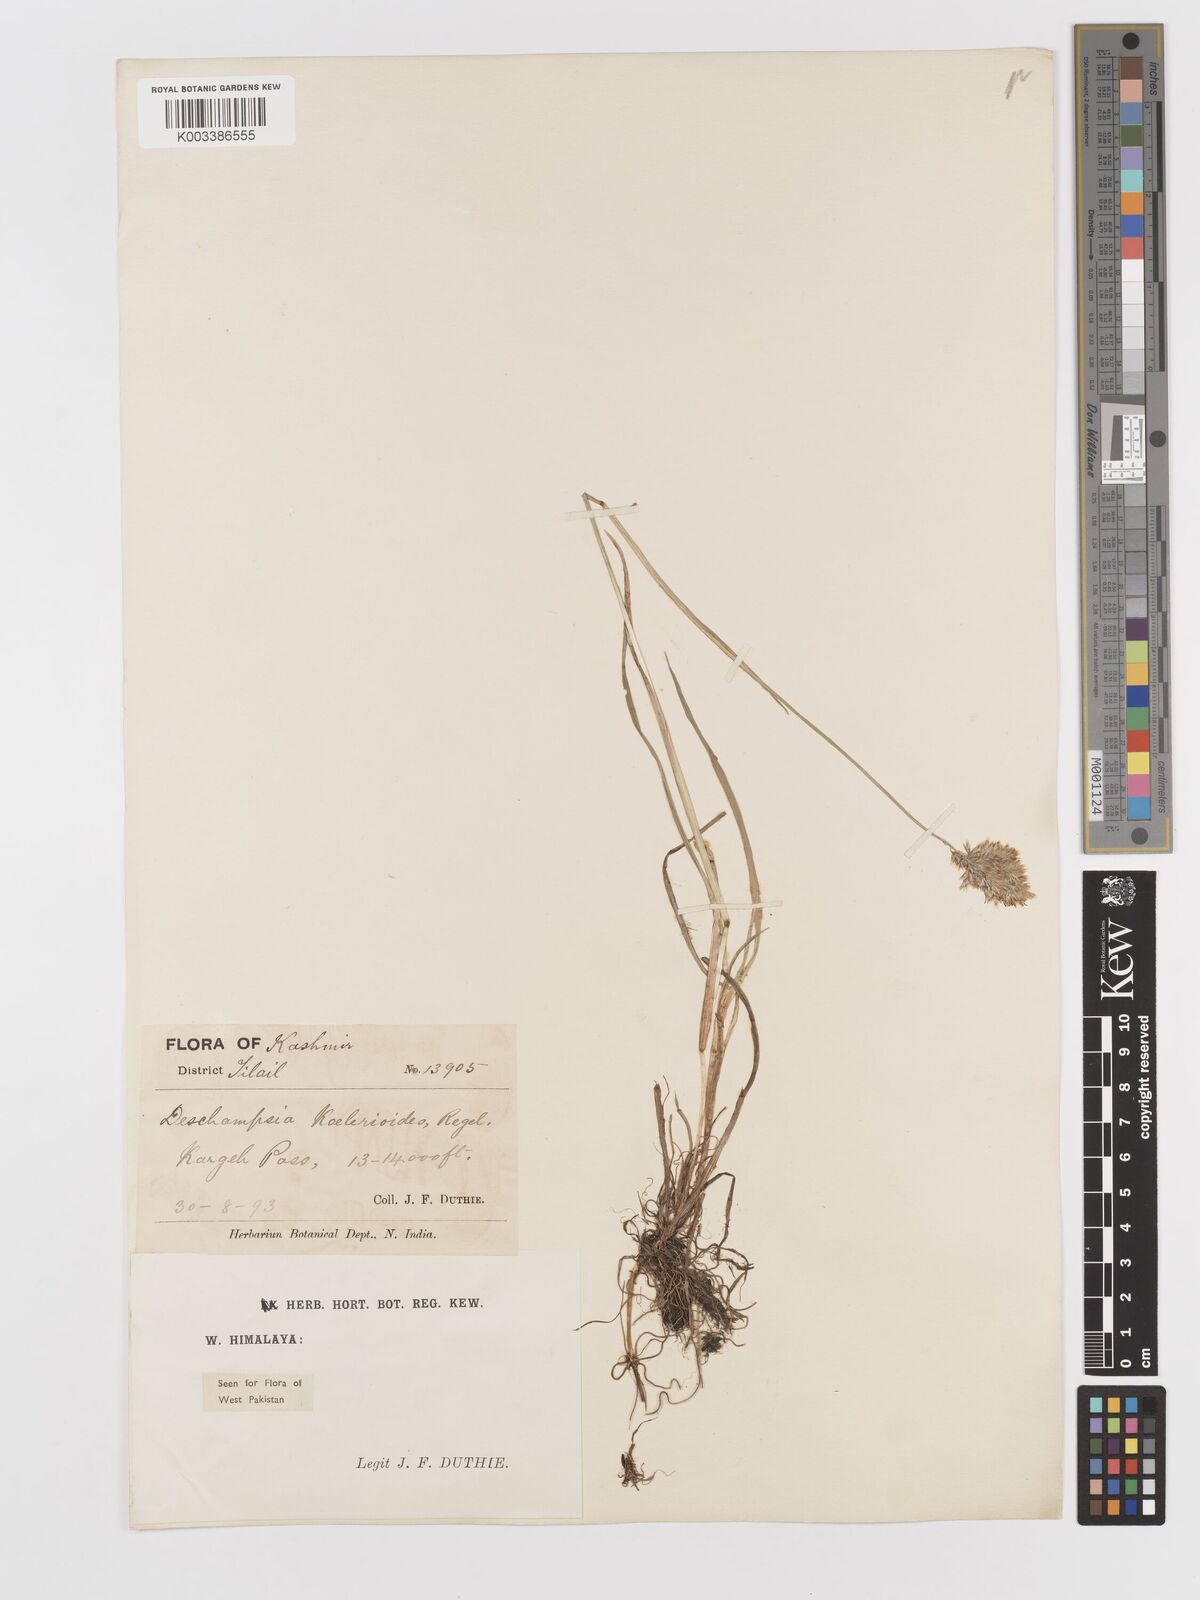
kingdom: Plantae
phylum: Tracheophyta
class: Liliopsida
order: Poales
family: Poaceae
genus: Deschampsia
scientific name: Deschampsia koelerioides
